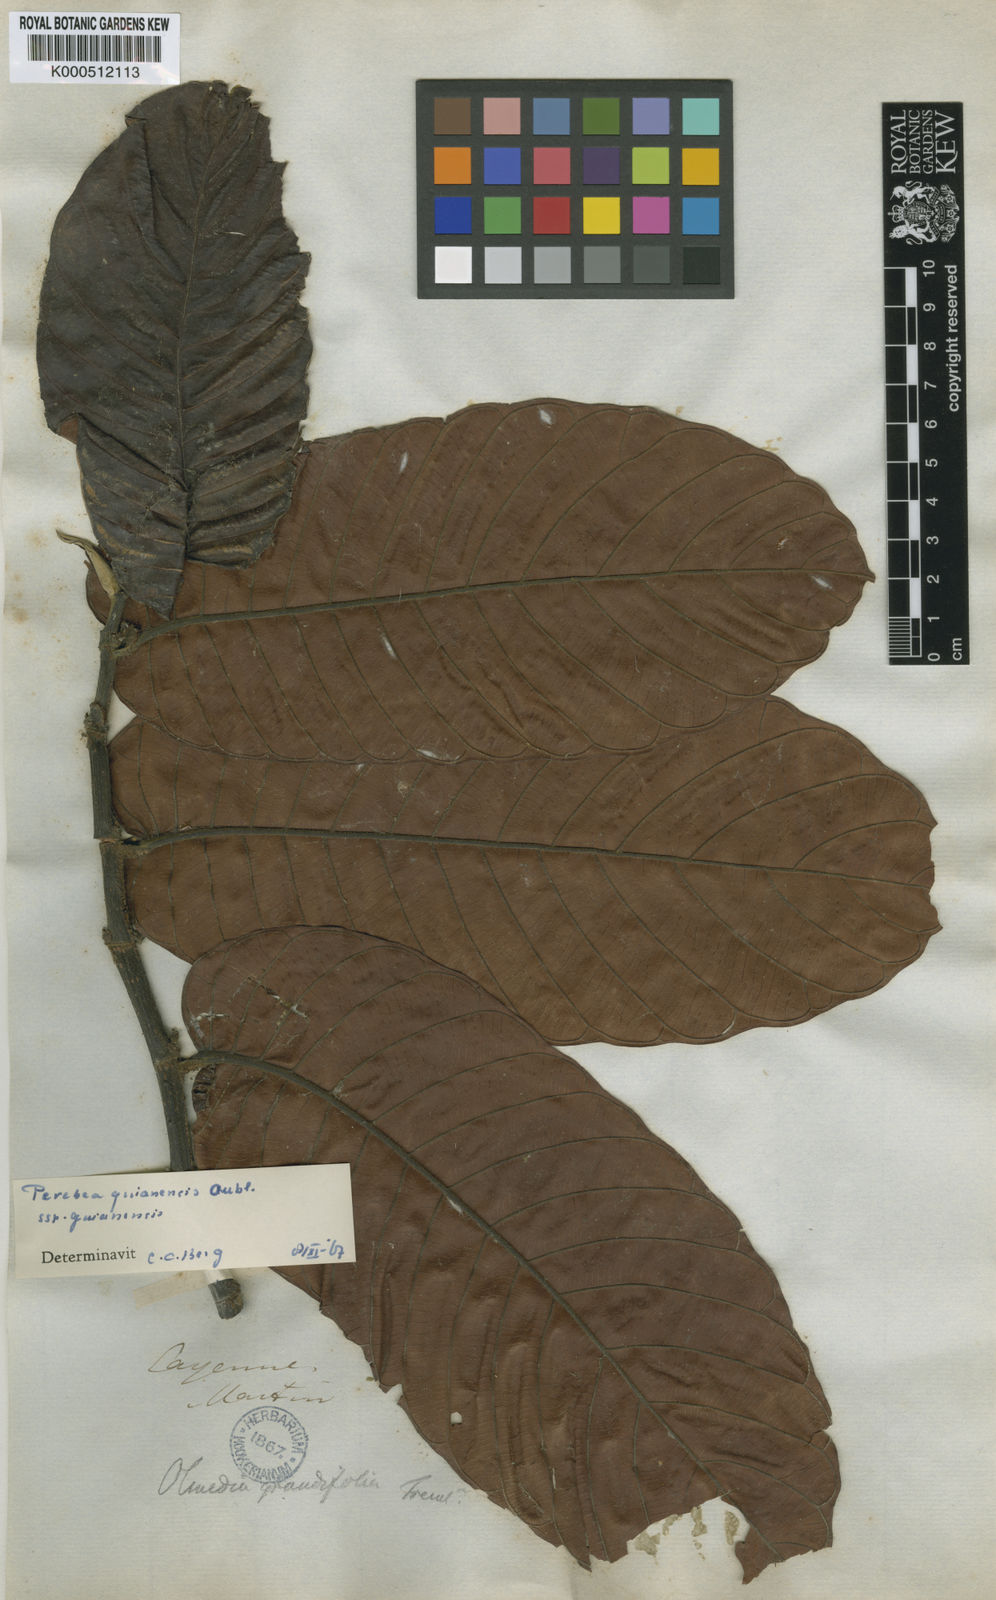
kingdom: Plantae
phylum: Tracheophyta
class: Magnoliopsida
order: Rosales
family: Moraceae
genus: Perebea
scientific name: Perebea guianensis
